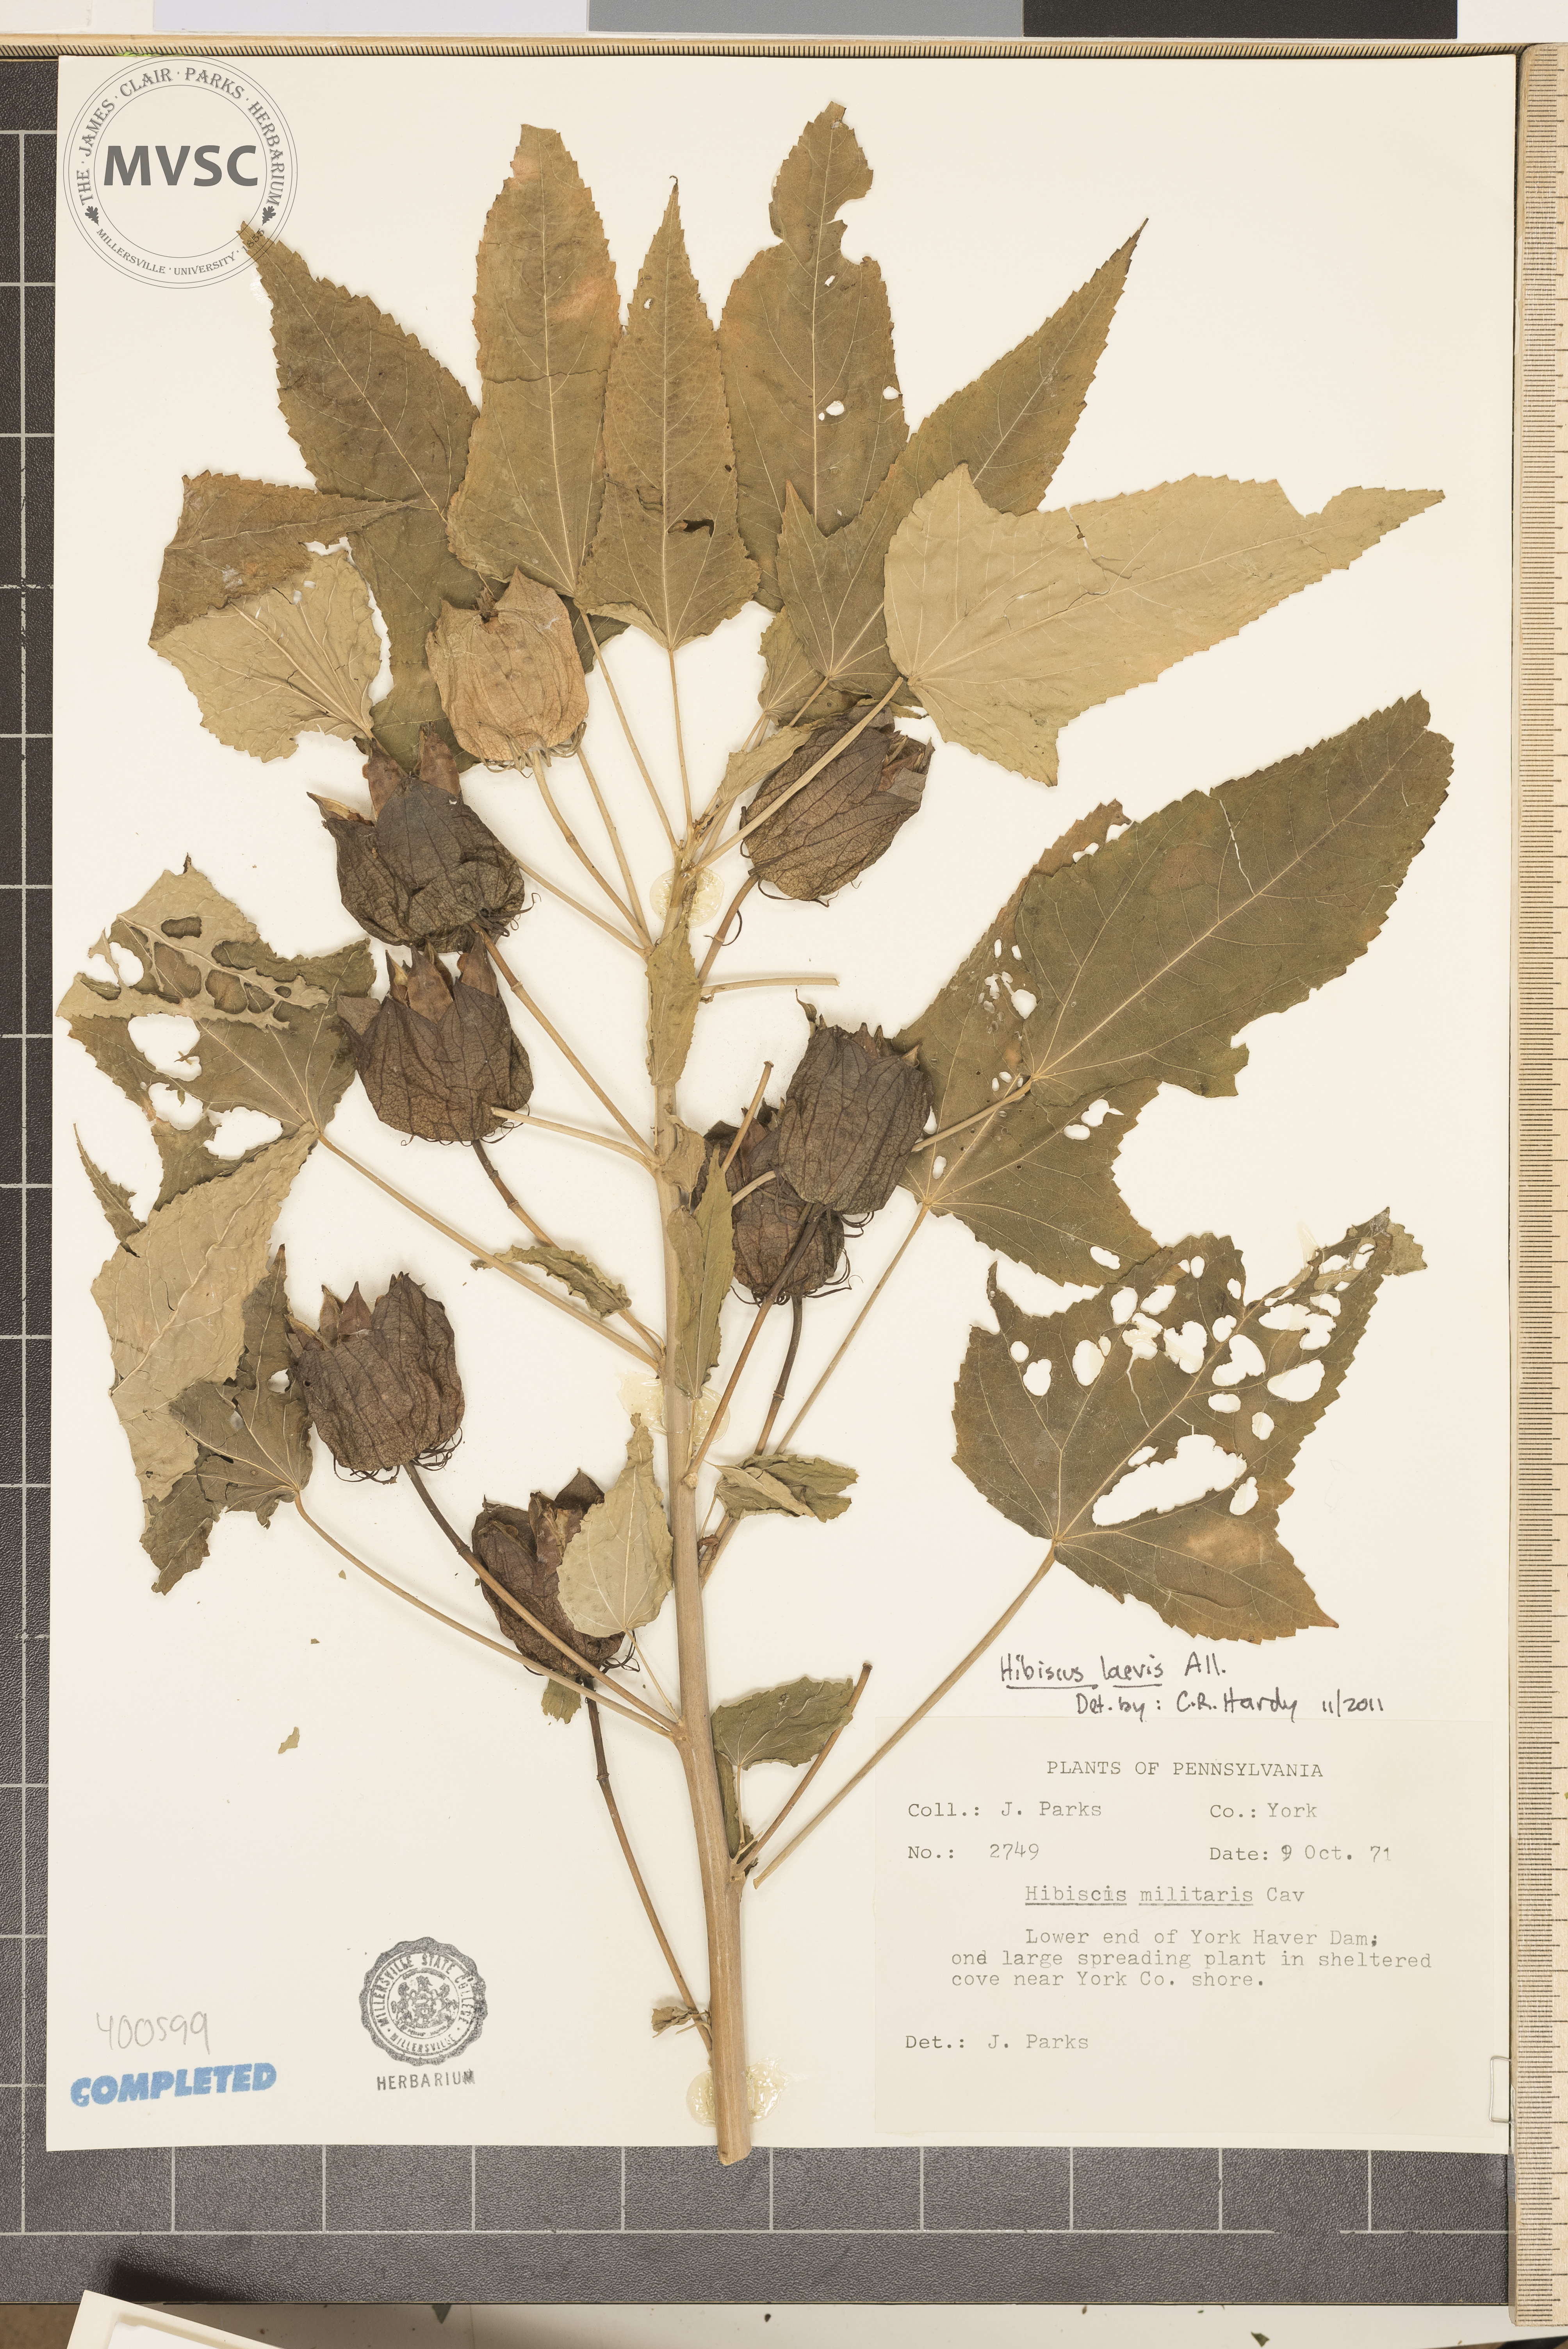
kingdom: Plantae
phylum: Tracheophyta
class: Magnoliopsida
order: Malvales
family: Malvaceae
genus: Hibiscus
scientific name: Hibiscus laevis
